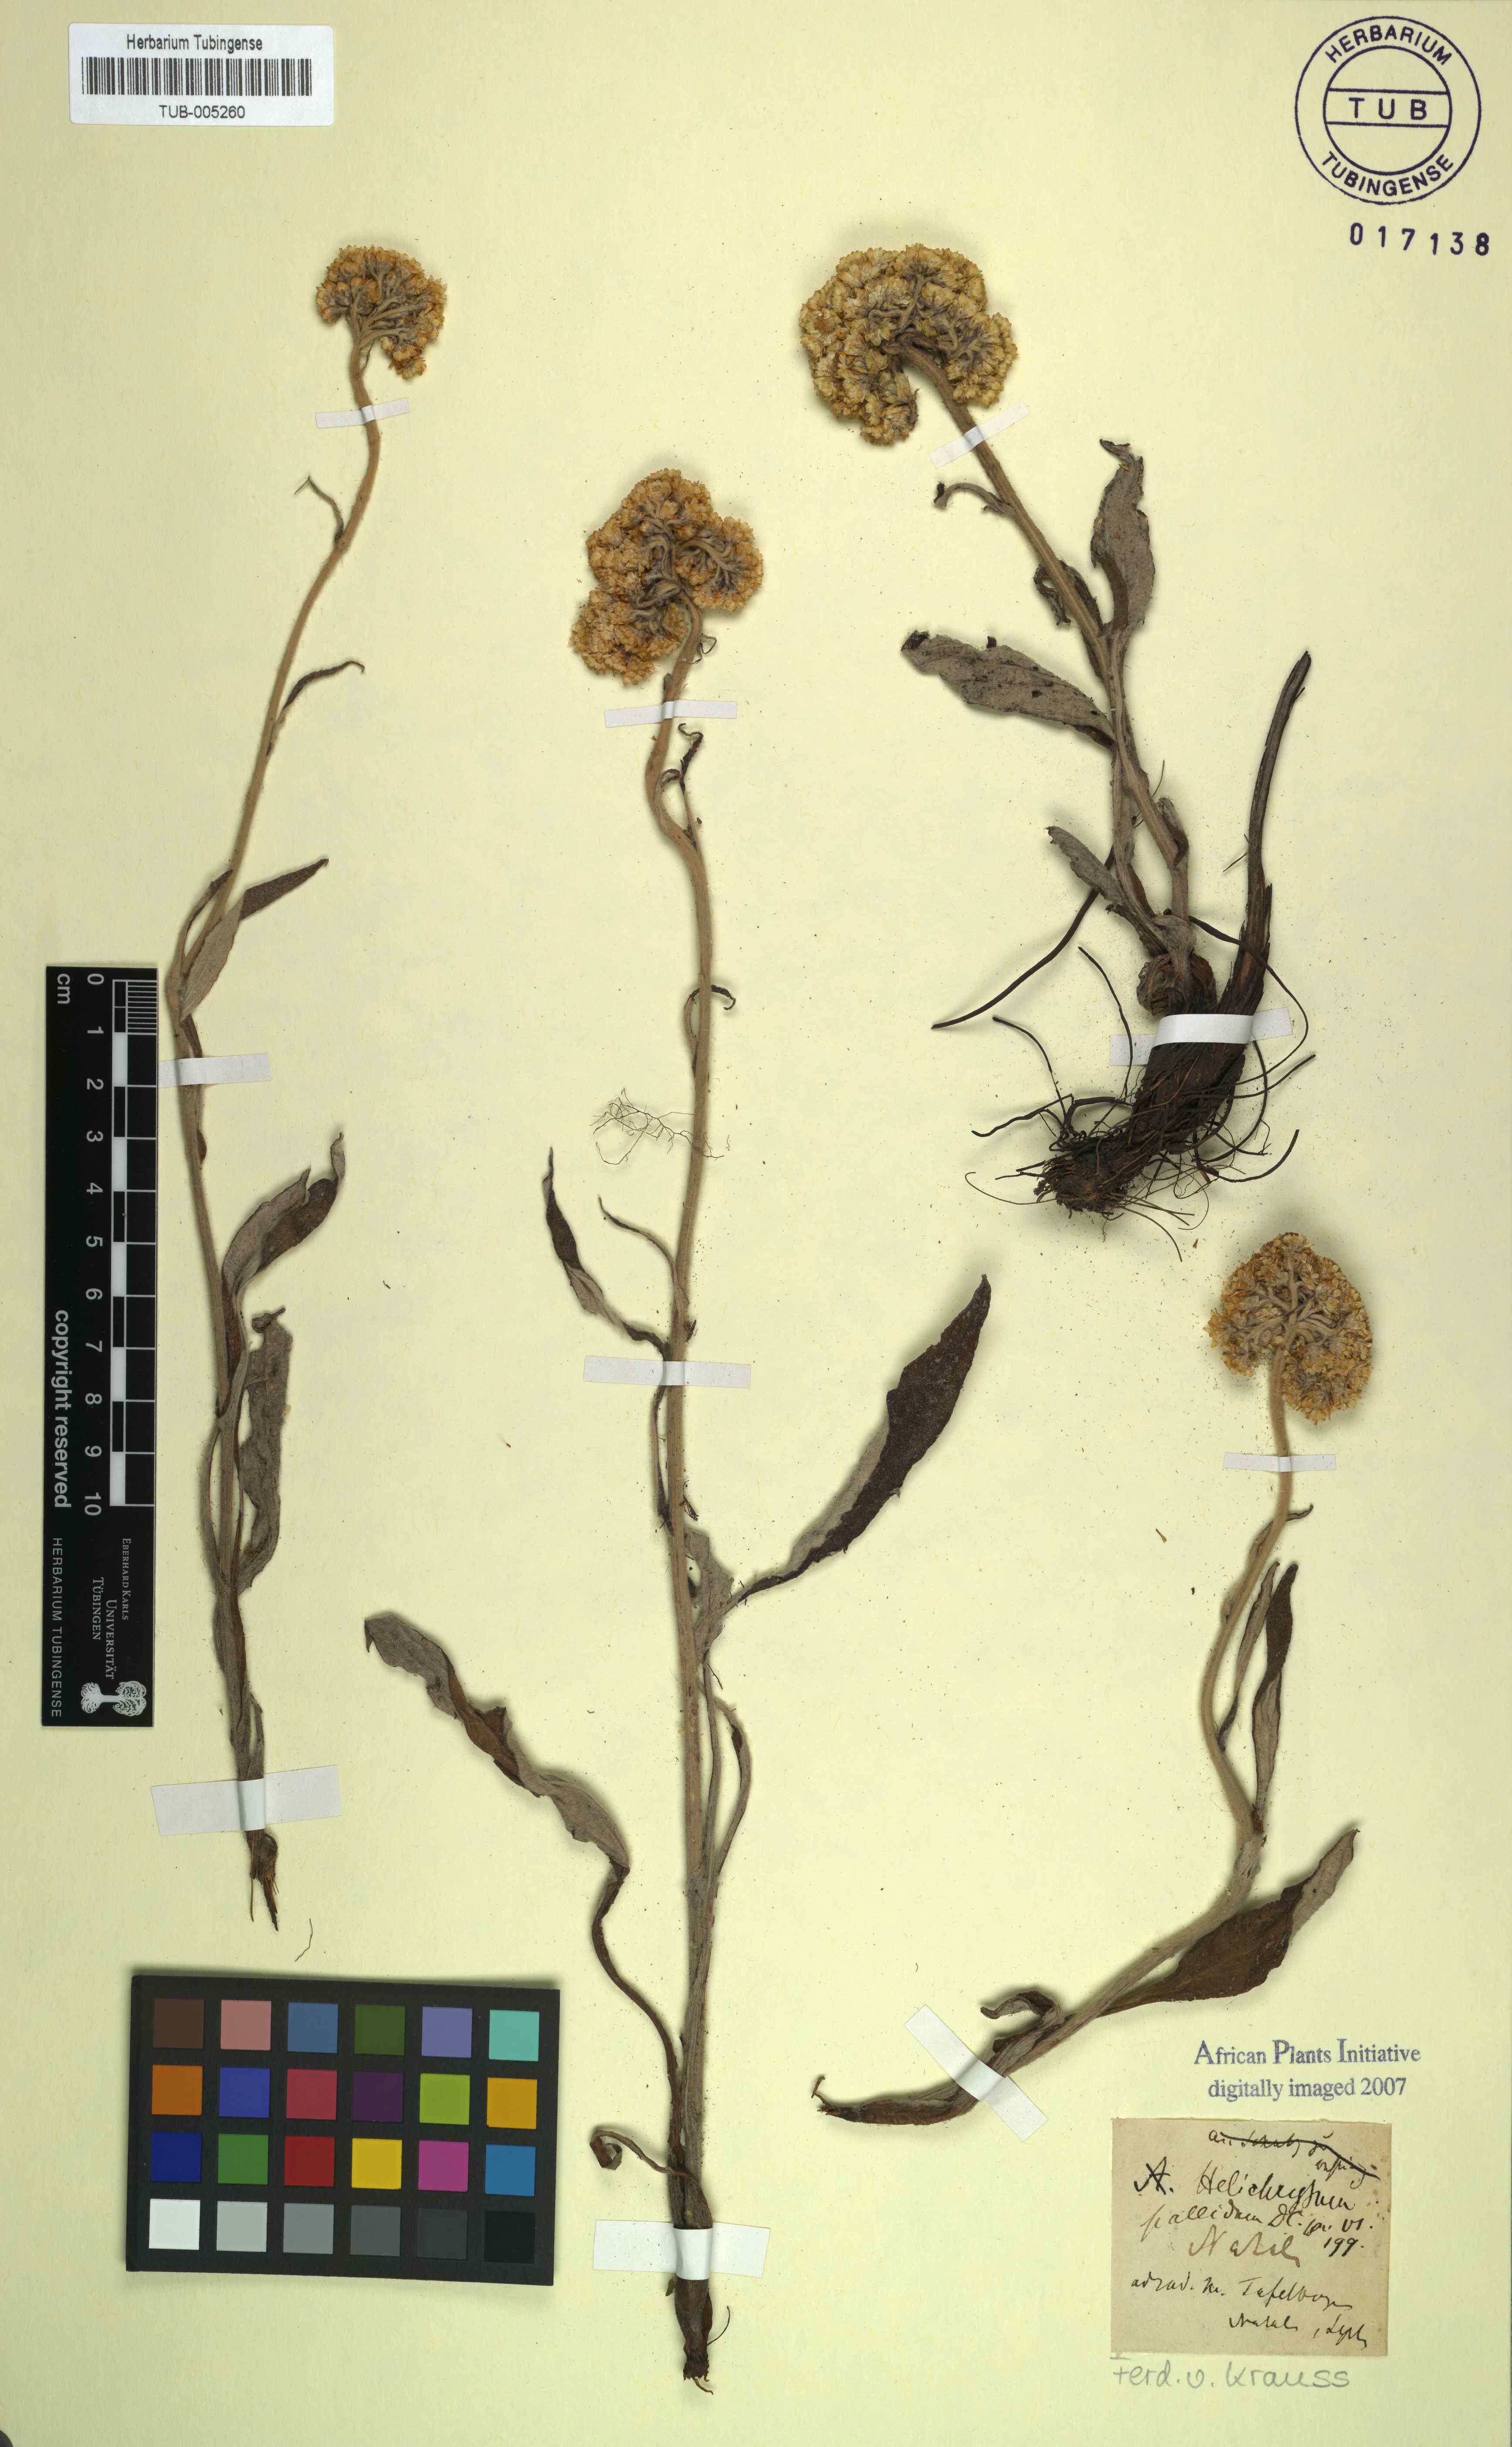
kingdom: Plantae
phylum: Tracheophyta
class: Magnoliopsida
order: Asterales
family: Asteraceae
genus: Helichrysum
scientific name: Helichrysum nudifolium
